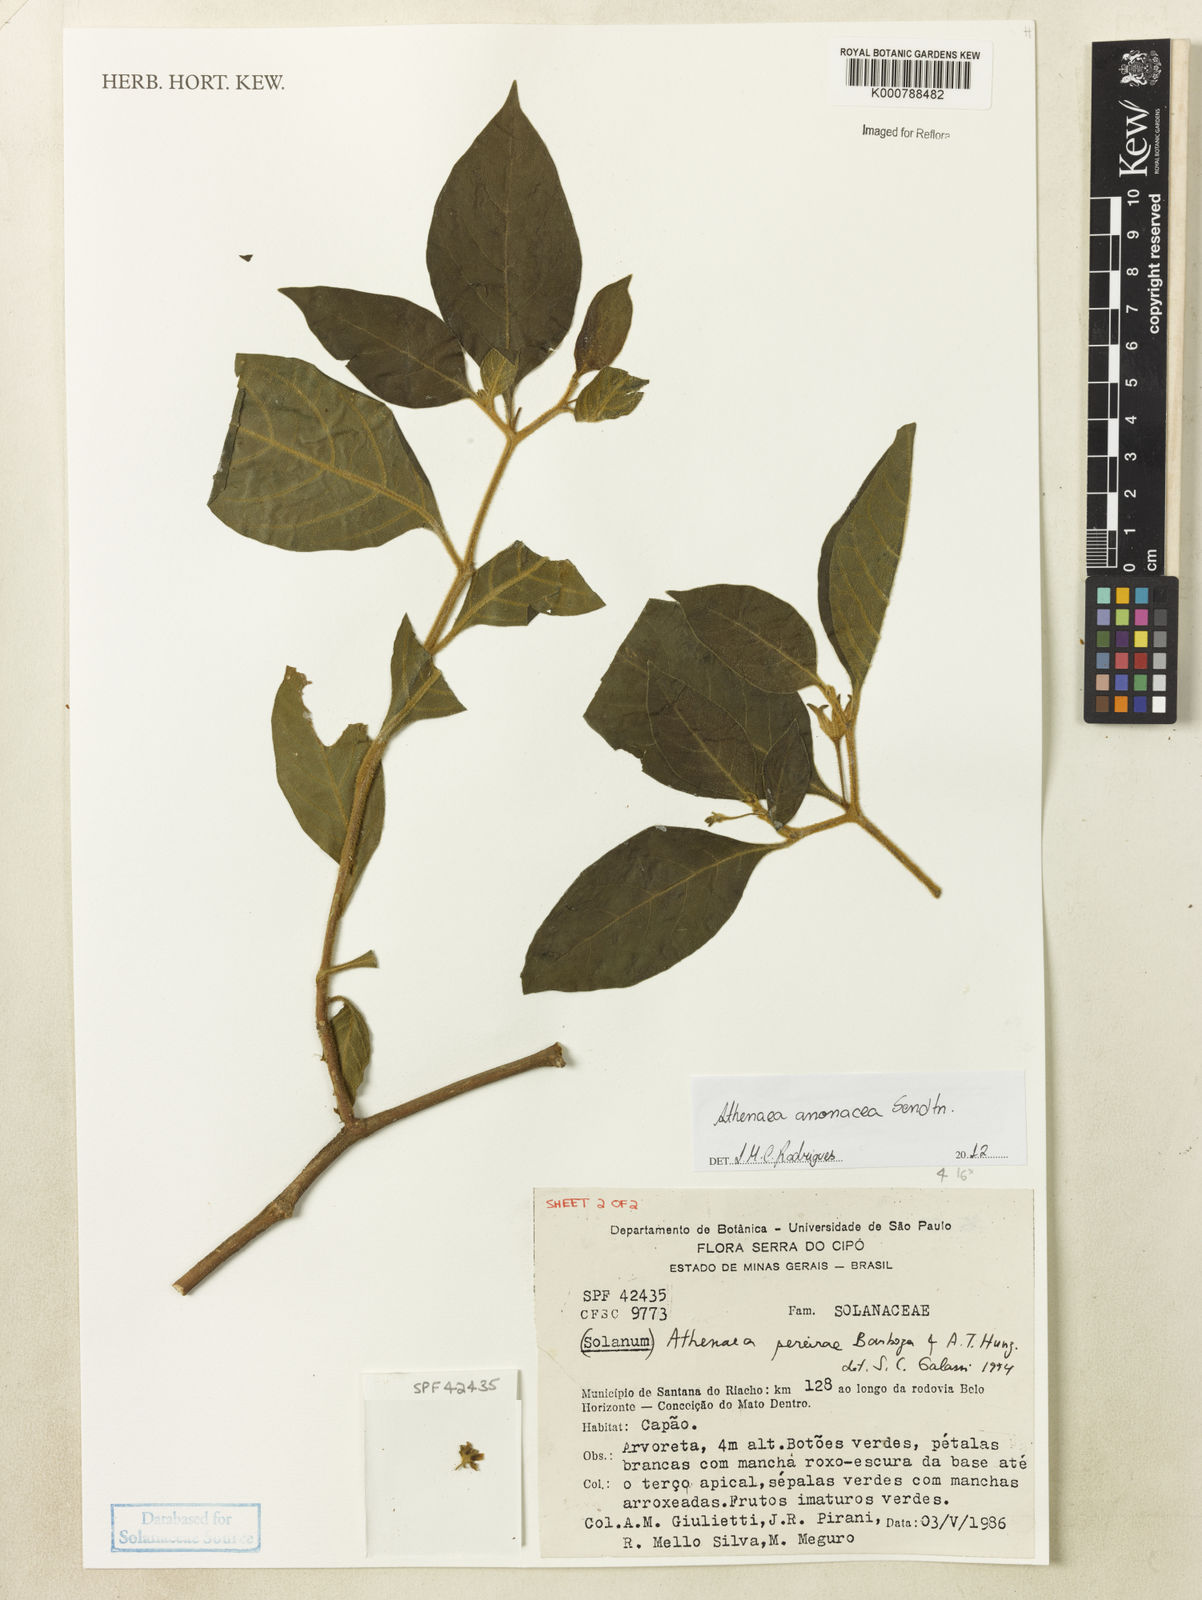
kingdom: Plantae
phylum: Tracheophyta
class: Magnoliopsida
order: Solanales
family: Solanaceae
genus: Athenaea
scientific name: Athenaea anonacea
